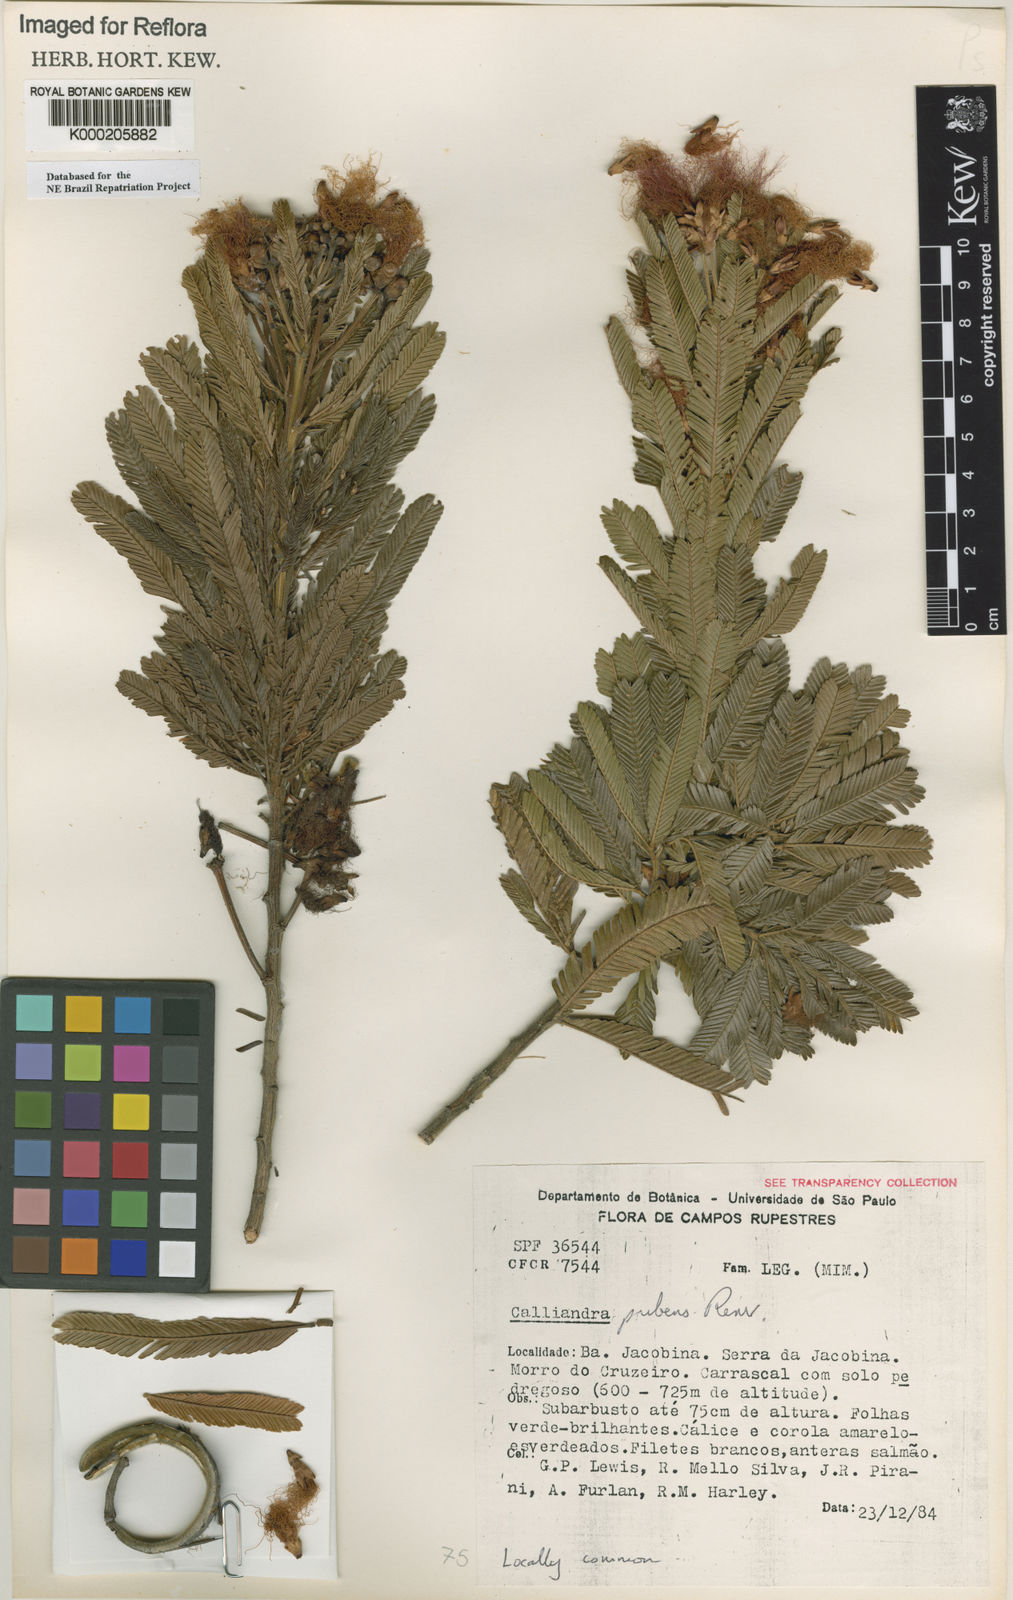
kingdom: Plantae
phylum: Tracheophyta
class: Magnoliopsida
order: Fabales
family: Fabaceae
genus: Calliandra
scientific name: Calliandra bahiana
